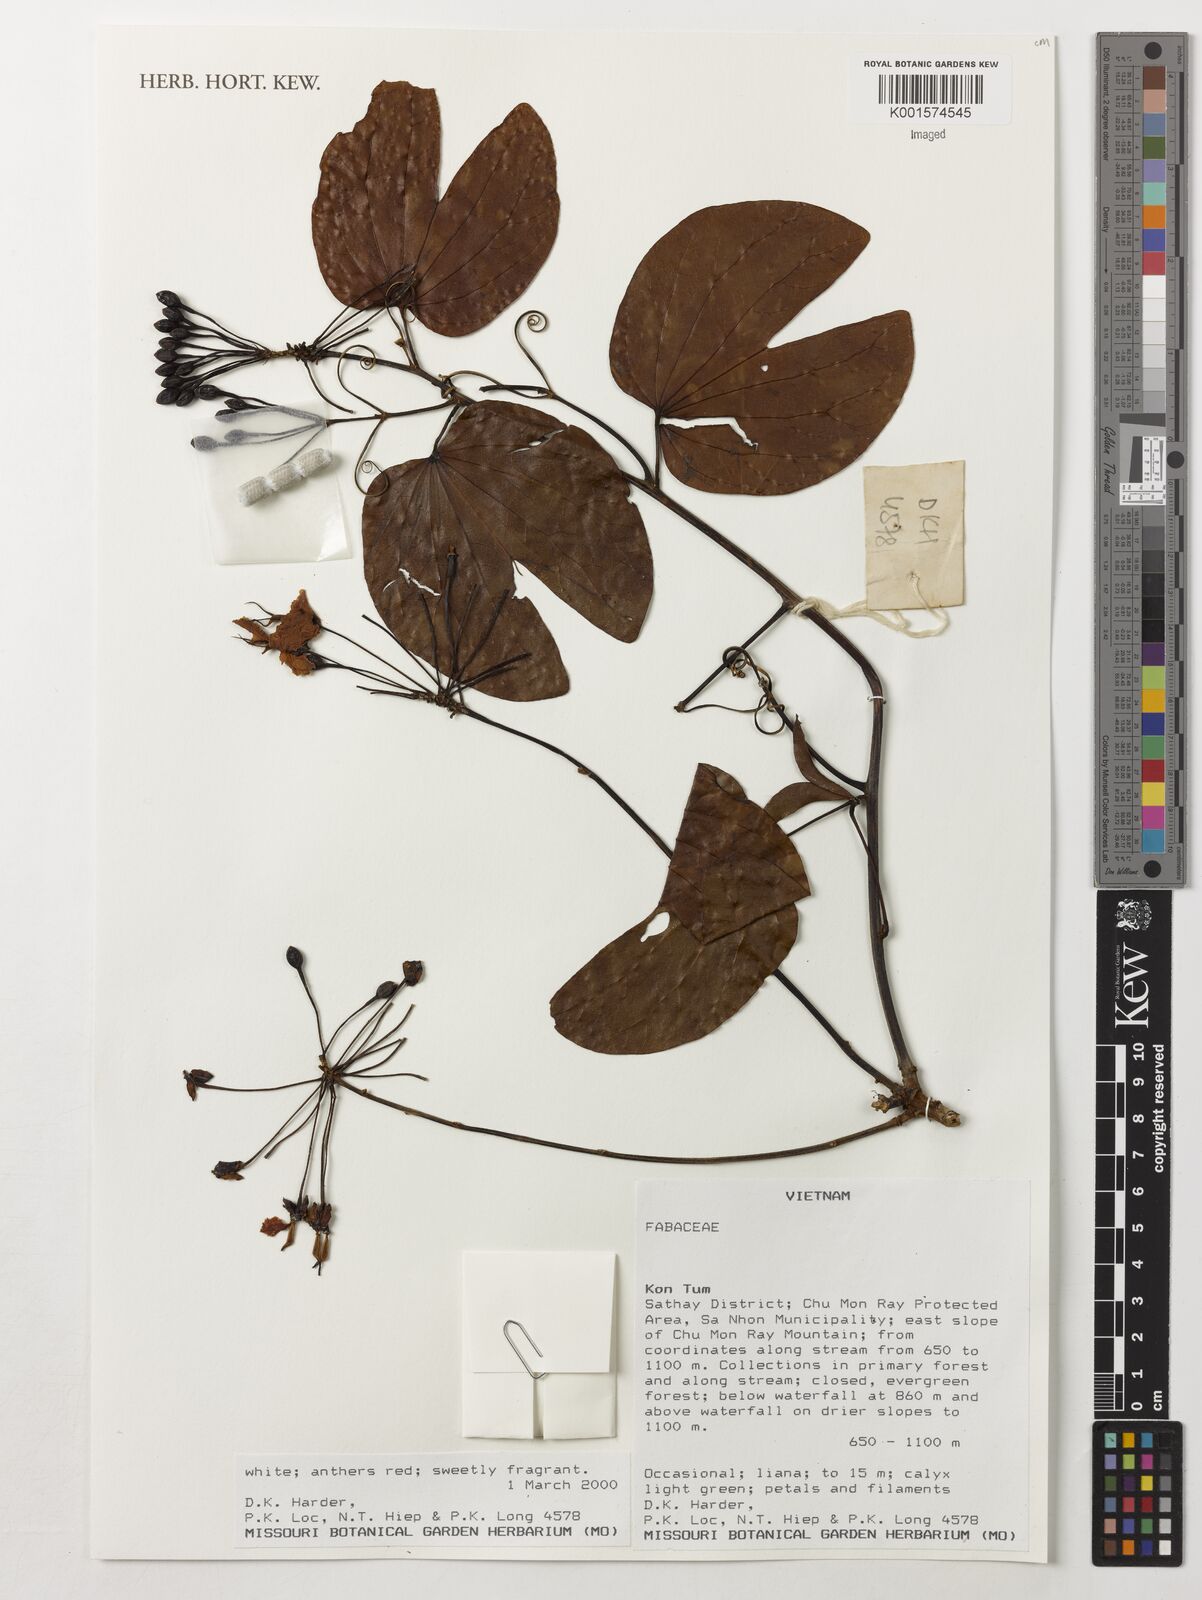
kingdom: Plantae
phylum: Tracheophyta
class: Magnoliopsida
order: Fabales
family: Fabaceae
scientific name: Fabaceae
